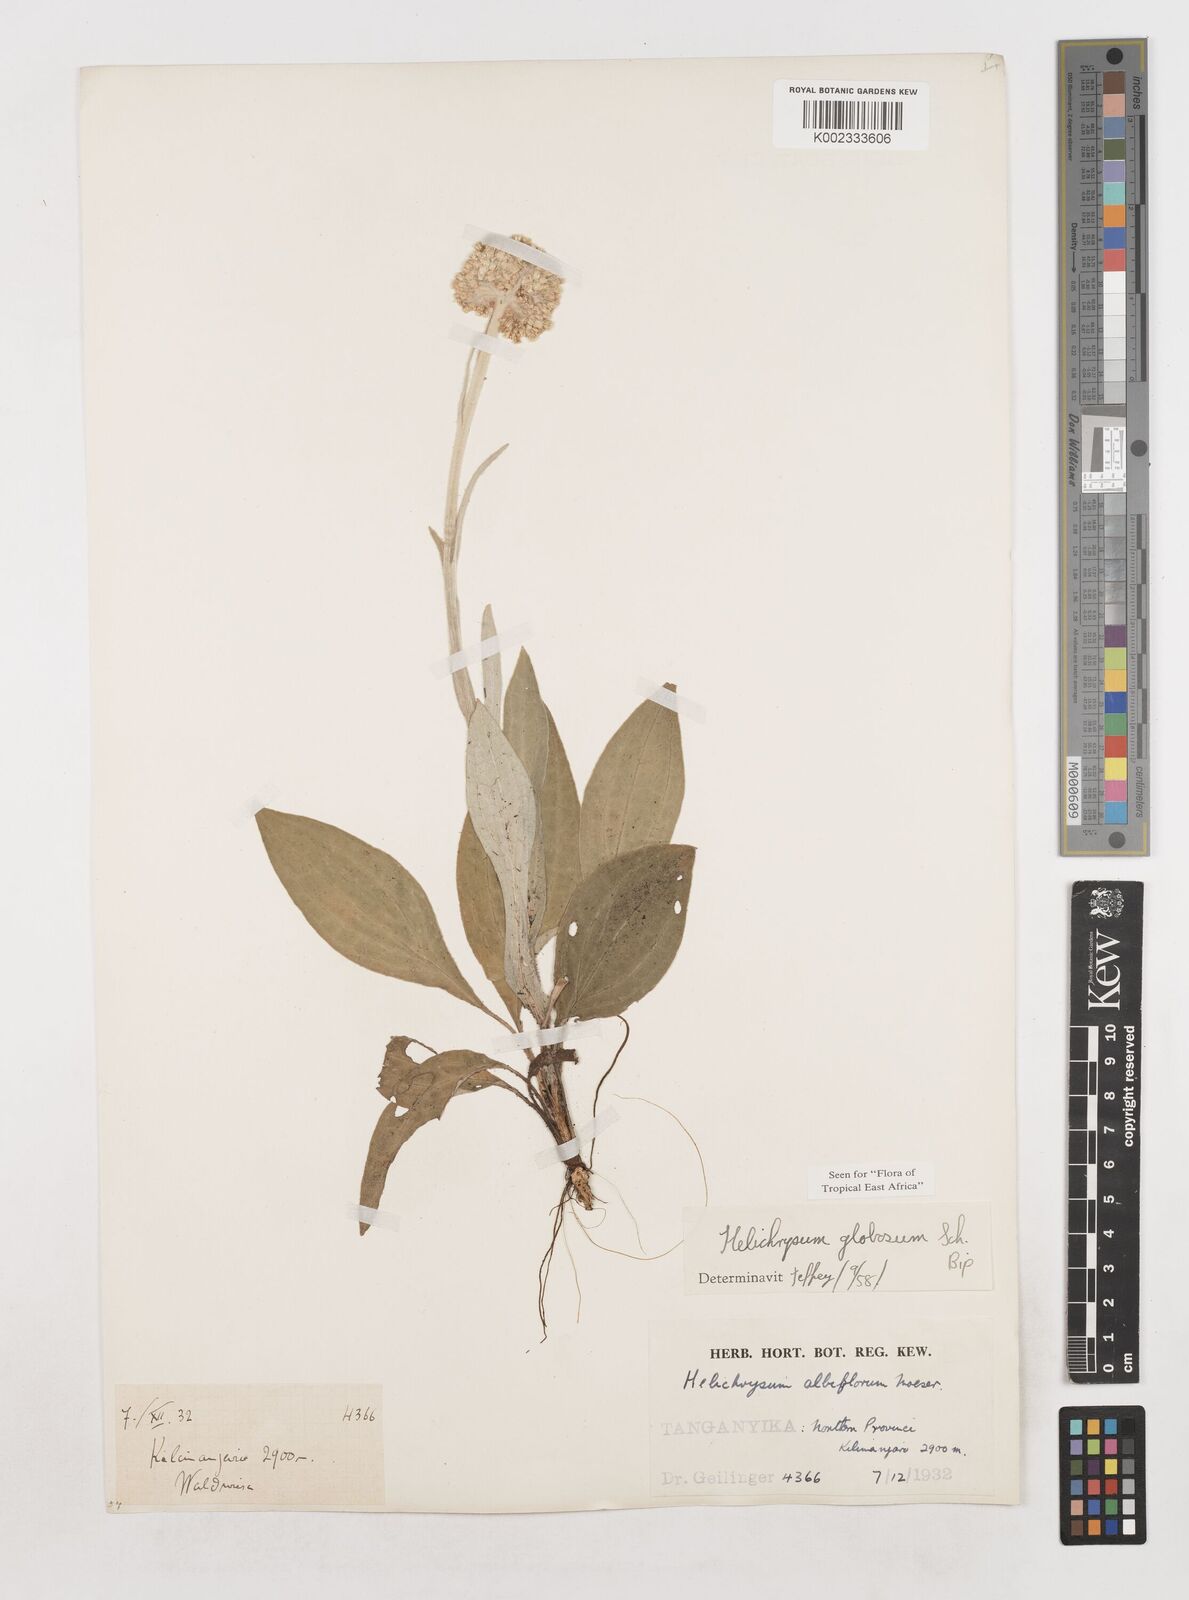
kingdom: Plantae
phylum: Tracheophyta
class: Magnoliopsida
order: Asterales
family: Asteraceae
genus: Helichrysum
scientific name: Helichrysum globosum
